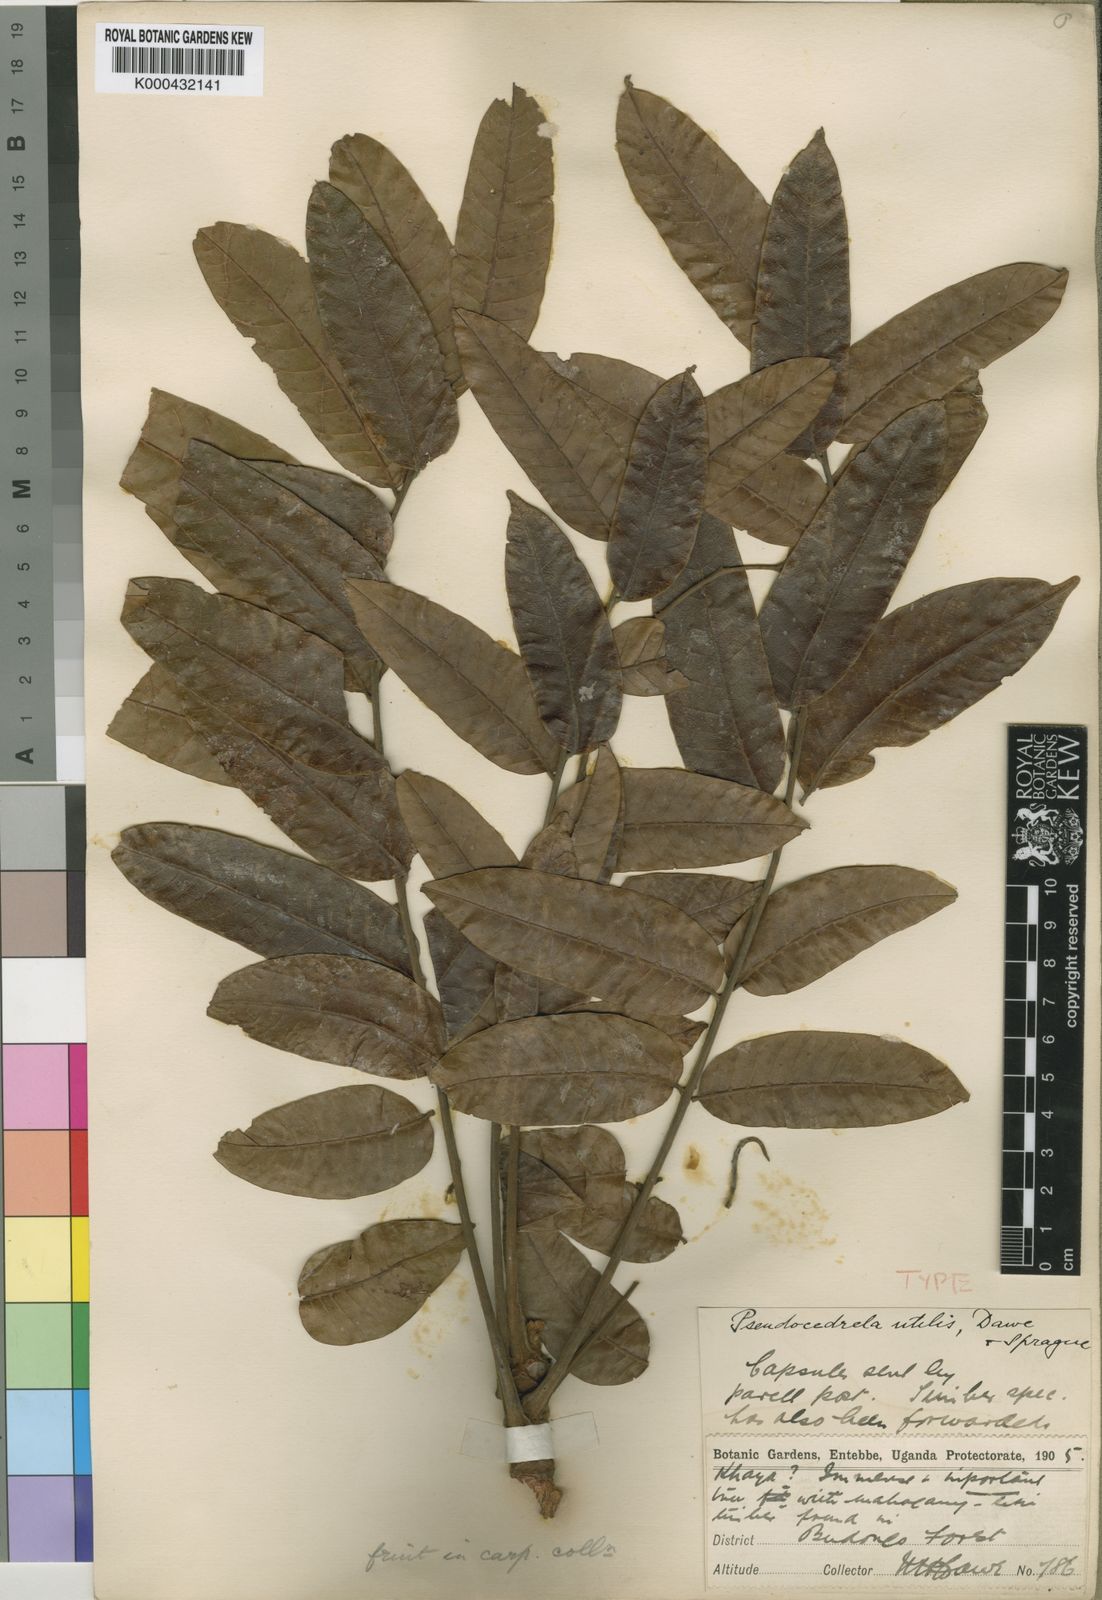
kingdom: Plantae
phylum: Tracheophyta
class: Magnoliopsida
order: Sapindales
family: Meliaceae
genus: Entandrophragma
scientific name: Entandrophragma utile
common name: Utile
